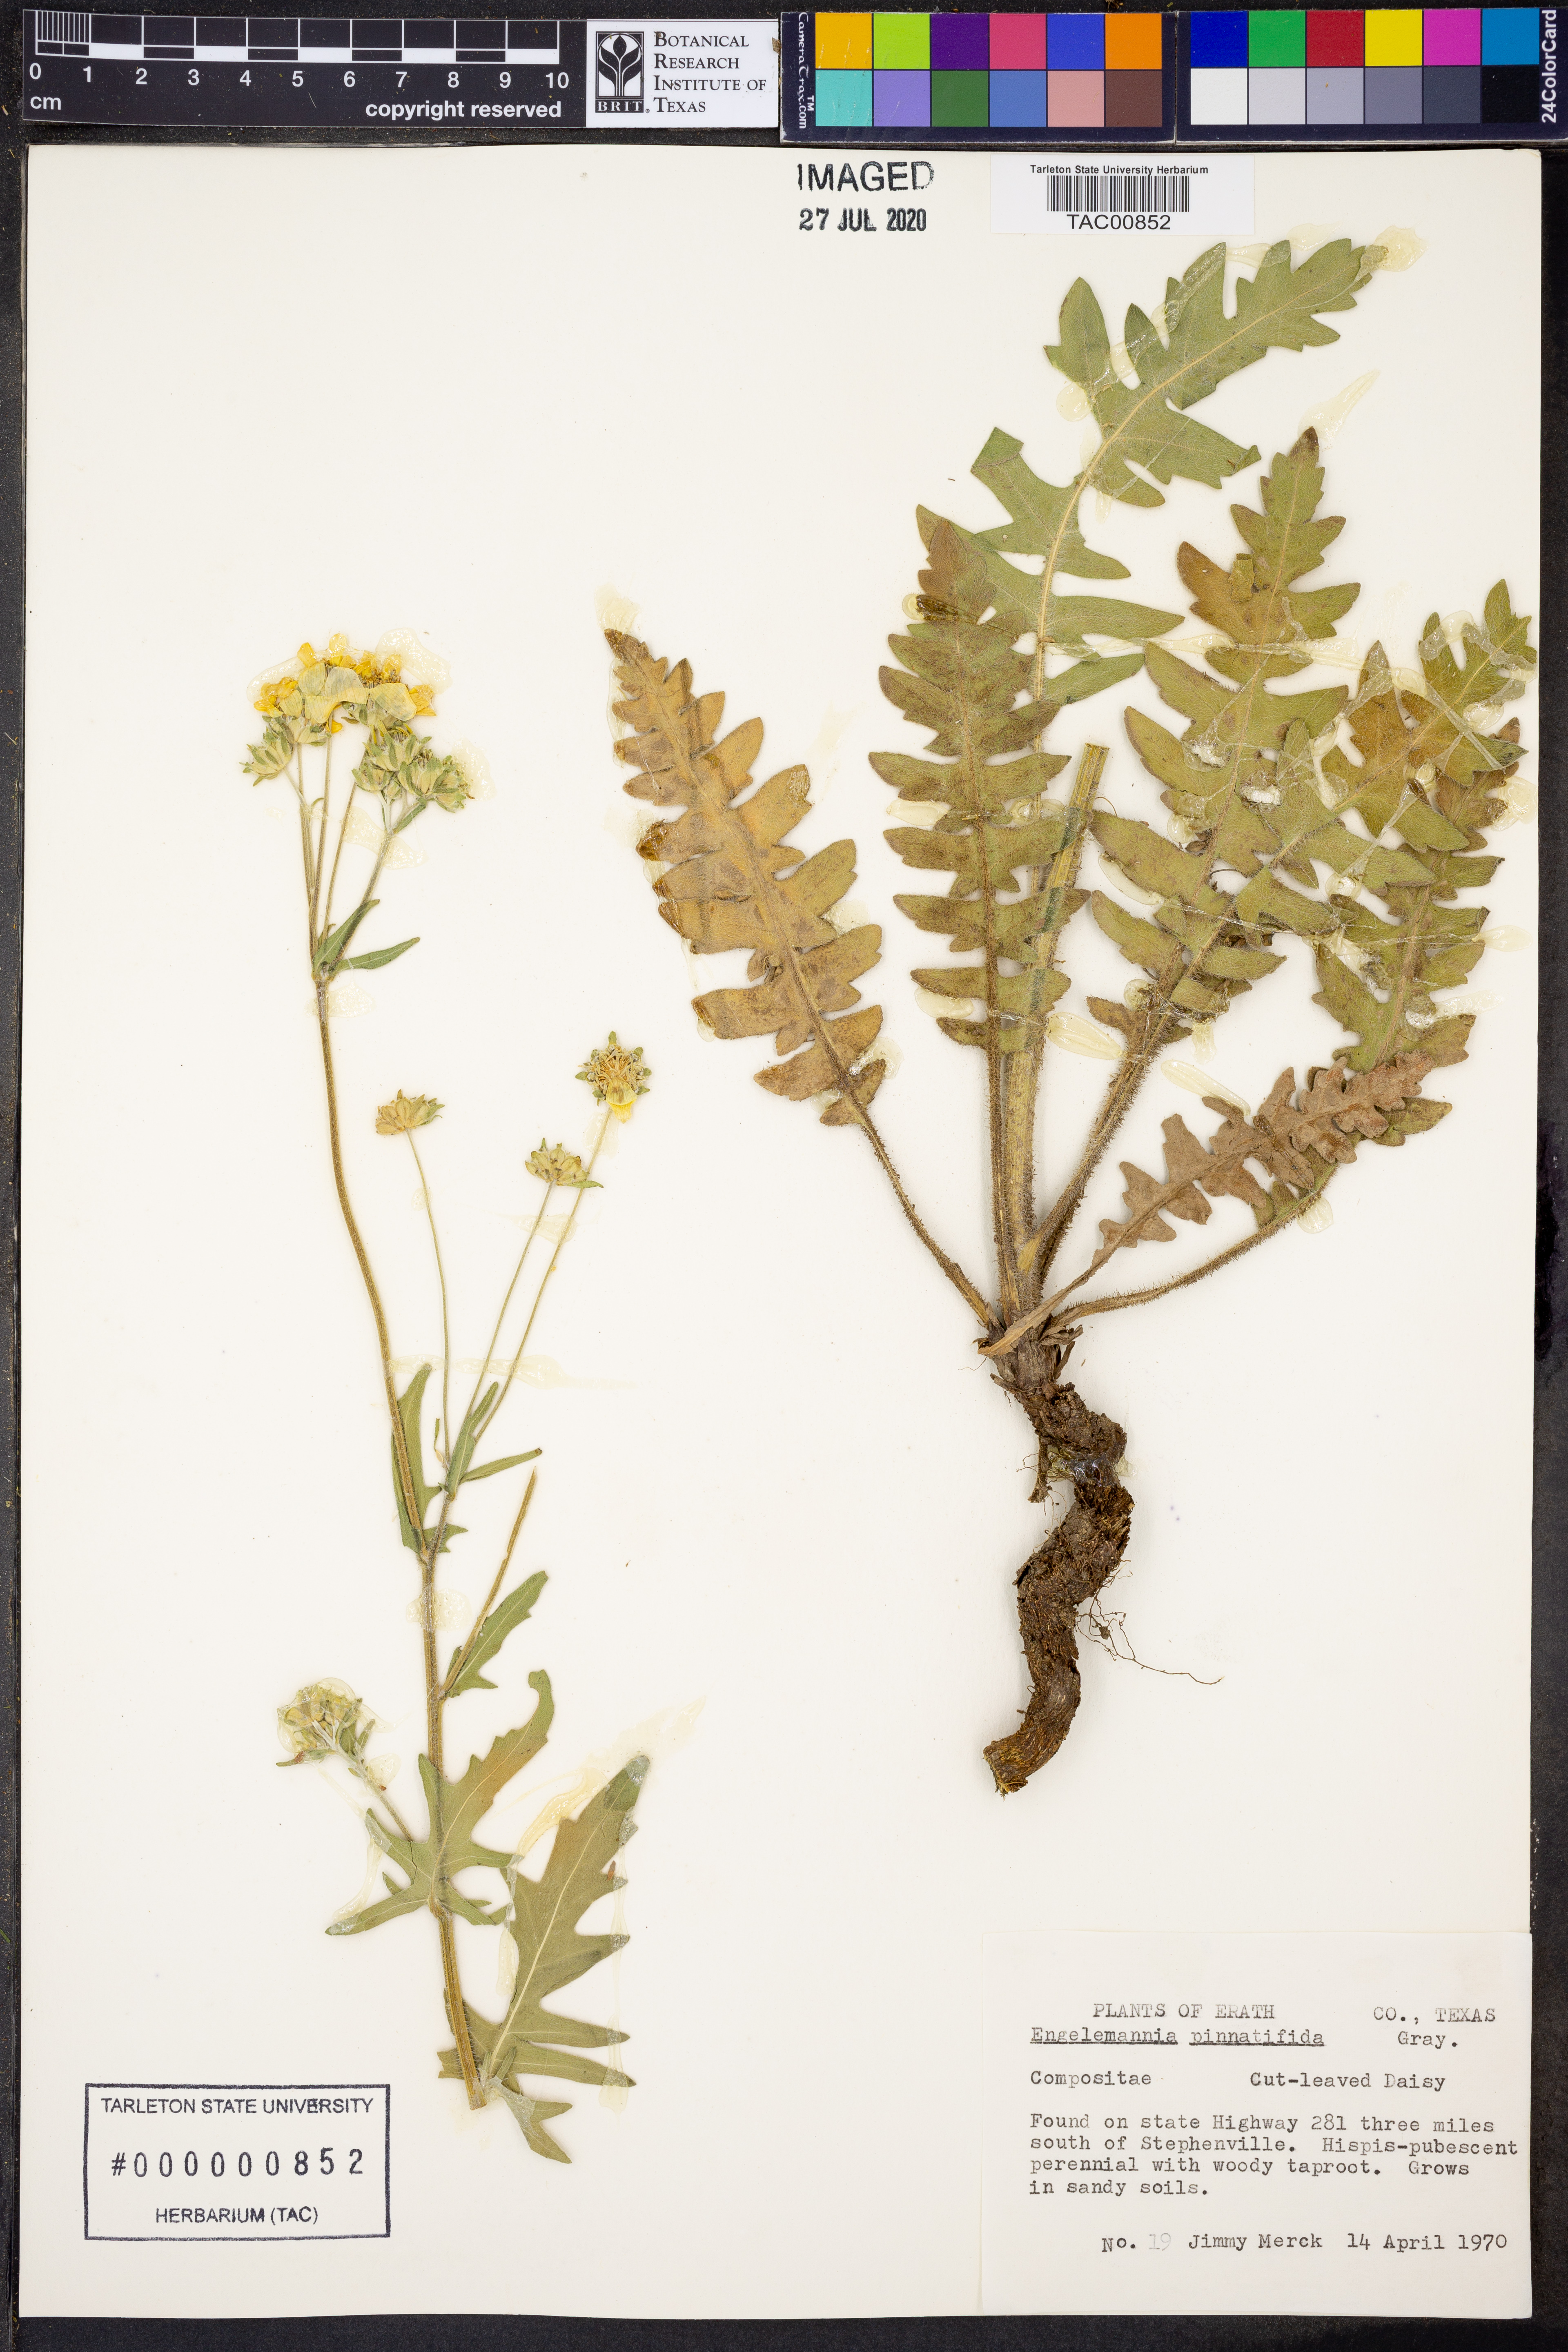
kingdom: Plantae
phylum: Tracheophyta
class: Magnoliopsida
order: Asterales
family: Asteraceae
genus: Engelmannia
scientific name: Engelmannia peristenia
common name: Engelmann's daisy
